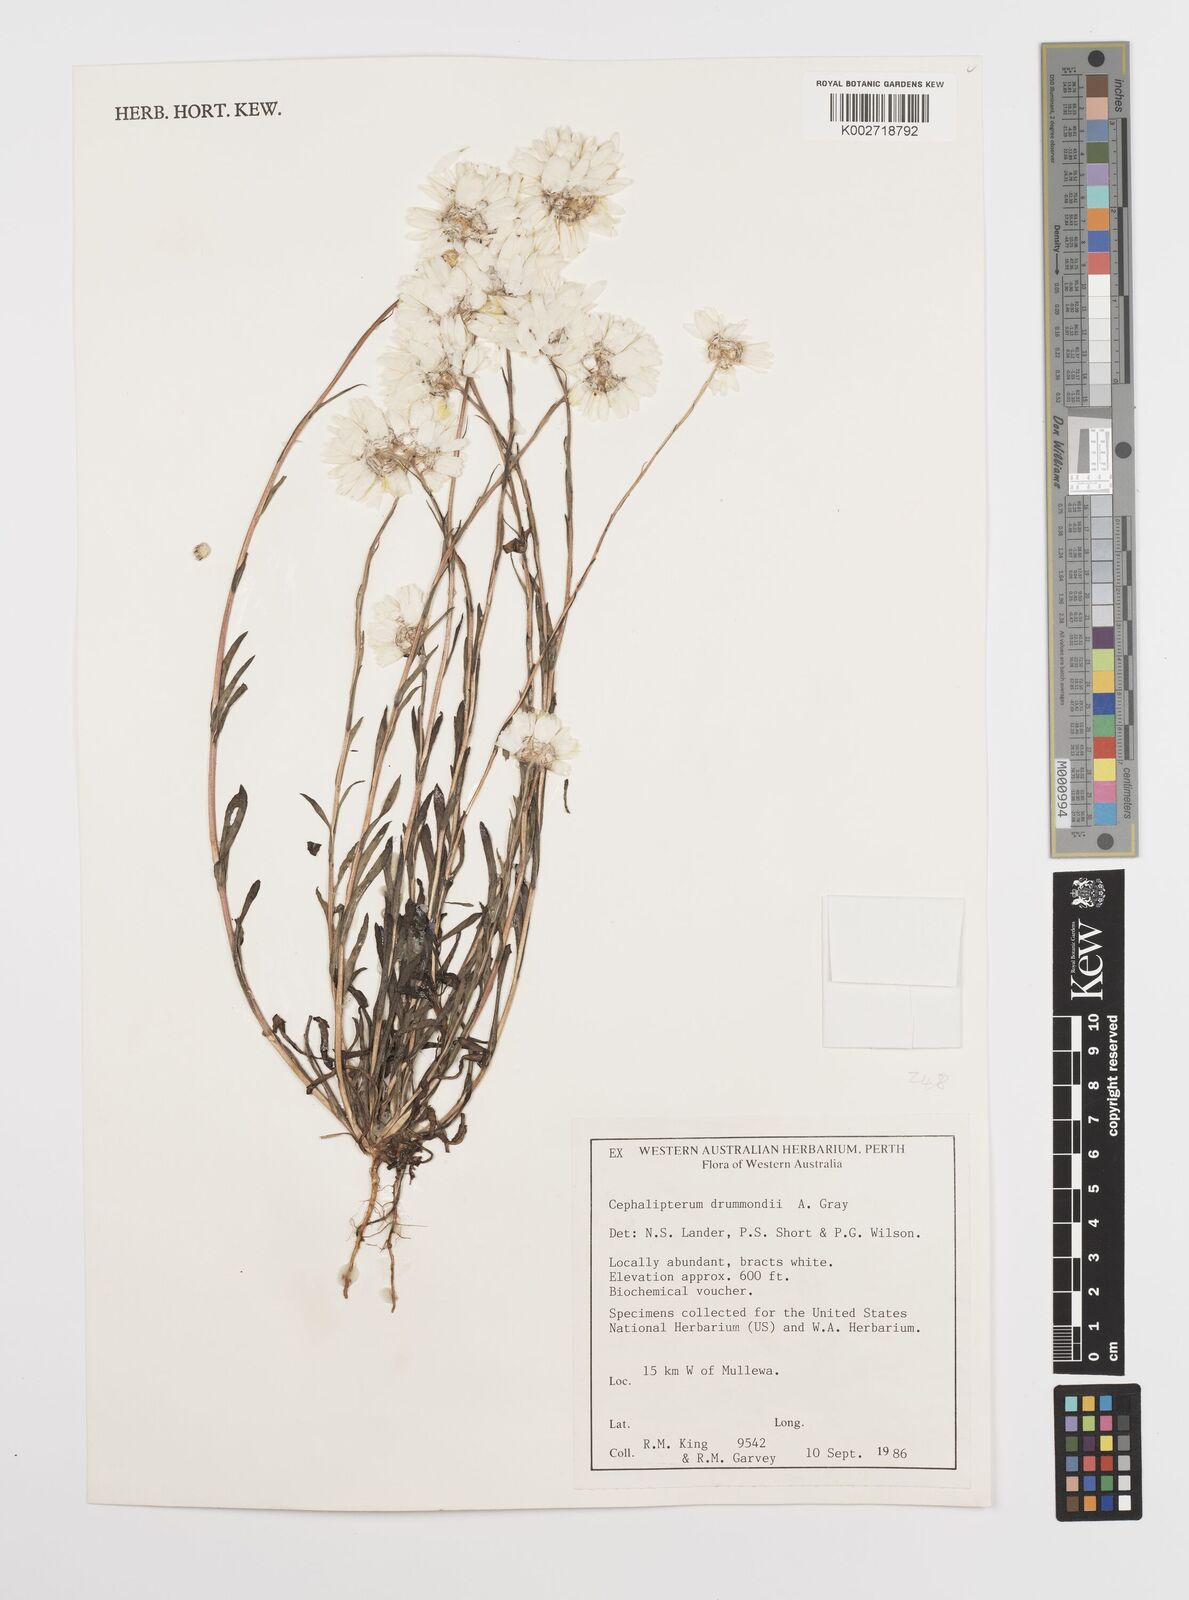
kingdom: Plantae
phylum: Tracheophyta
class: Magnoliopsida
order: Asterales
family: Asteraceae
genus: Cephalipterum
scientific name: Cephalipterum drummondii
